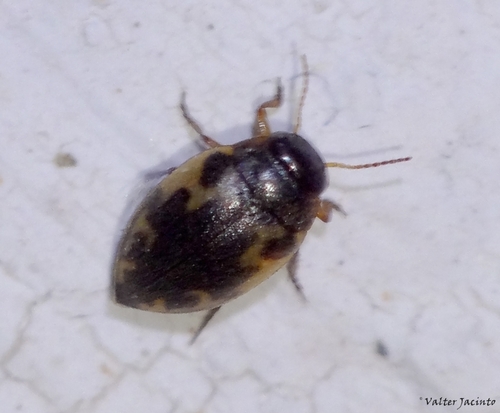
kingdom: Animalia
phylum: Arthropoda
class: Insecta
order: Coleoptera
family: Dytiscidae
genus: Stictonectes
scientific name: Stictonectes lepidus
